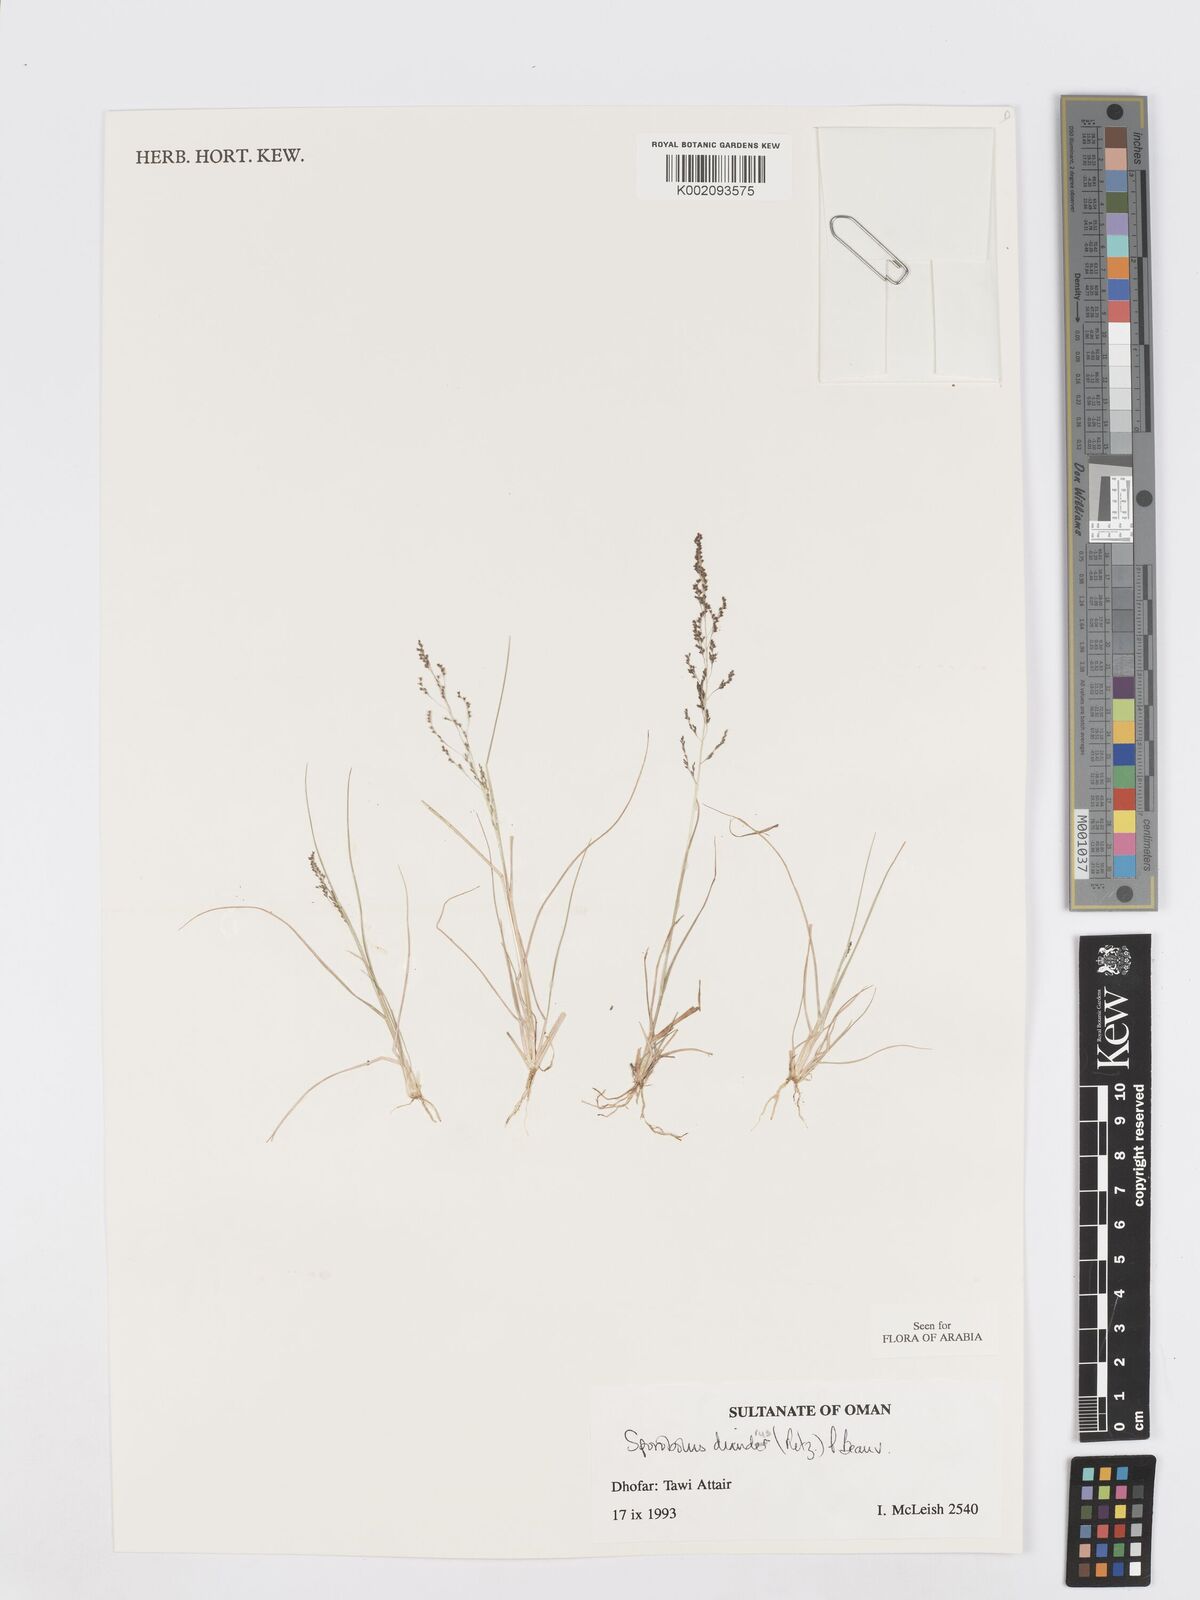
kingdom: Plantae
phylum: Tracheophyta
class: Liliopsida
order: Poales
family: Poaceae
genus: Sporobolus
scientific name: Sporobolus diandrus
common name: Tussock dropseed
